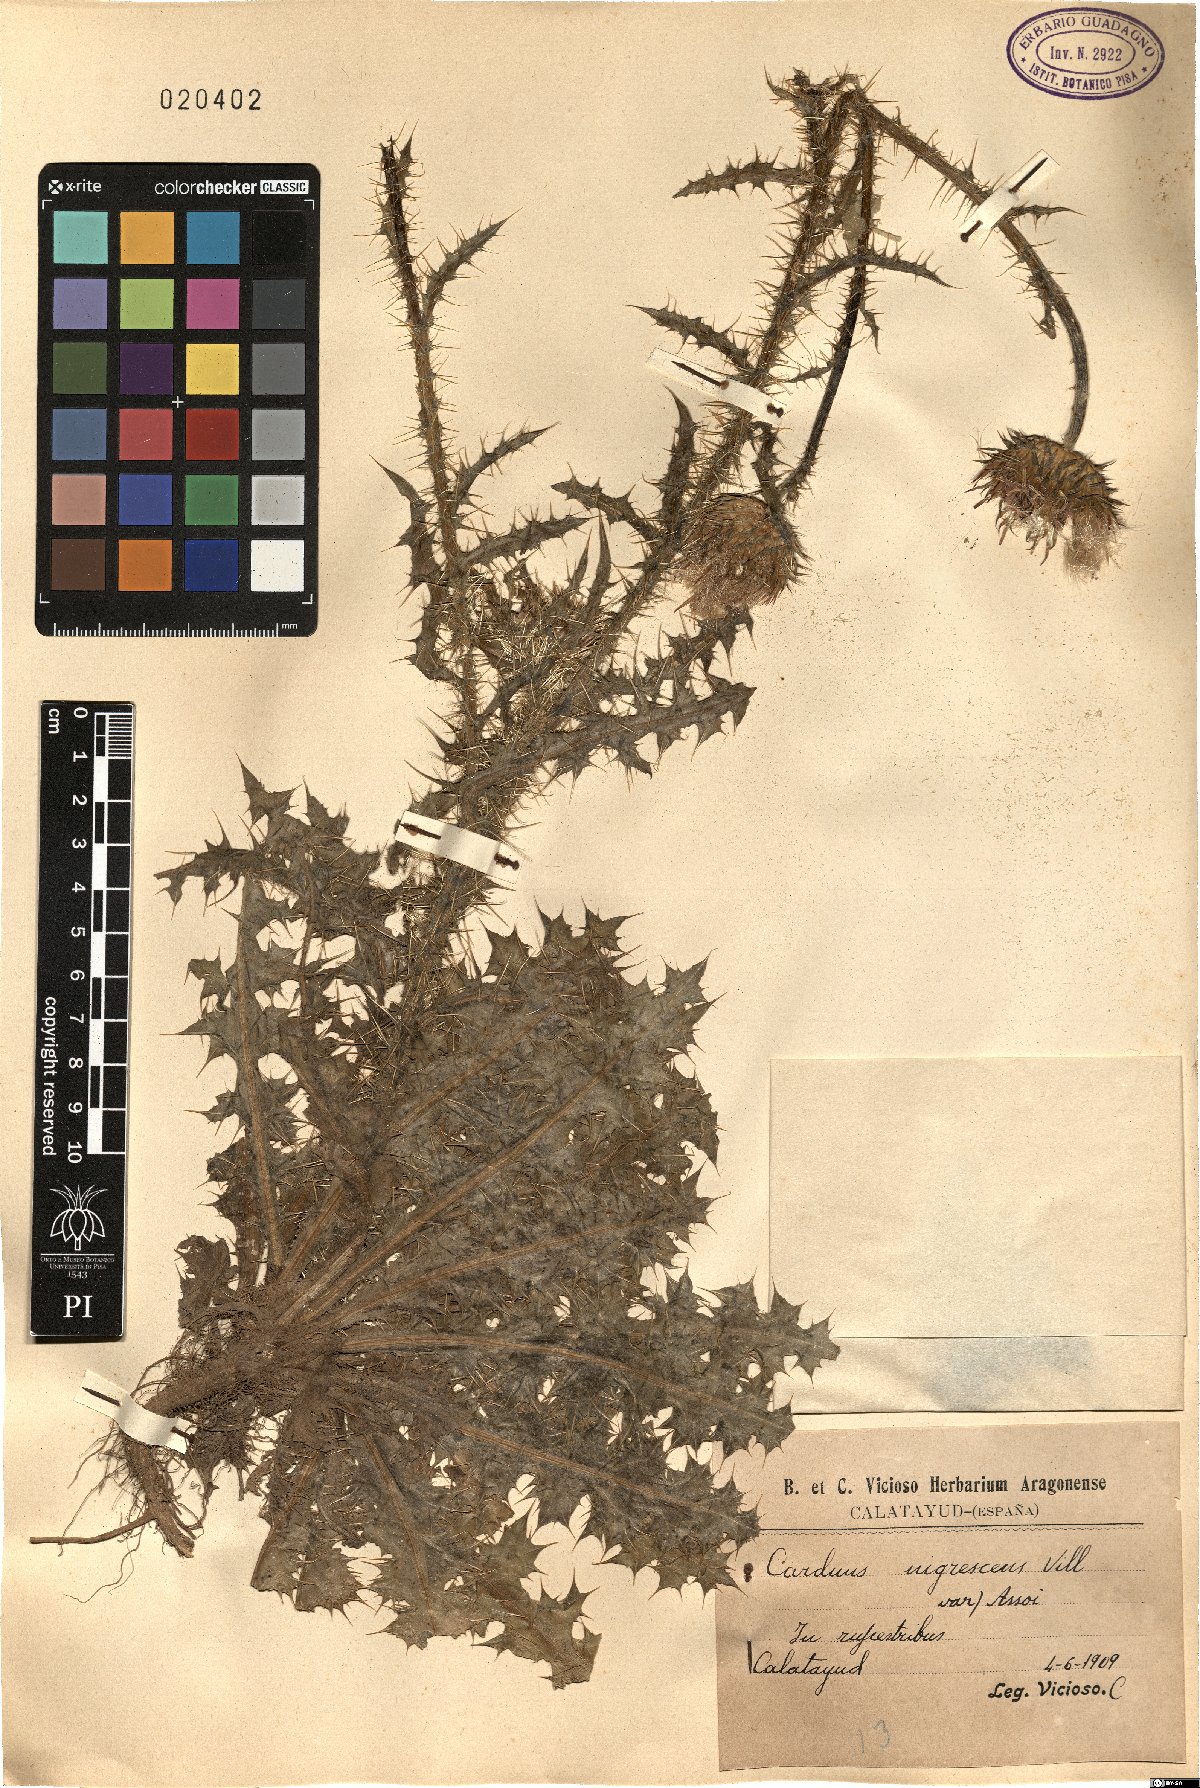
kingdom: Plantae
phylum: Tracheophyta
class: Magnoliopsida
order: Asterales
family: Asteraceae
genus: Carduus
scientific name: Carduus nigrescens
